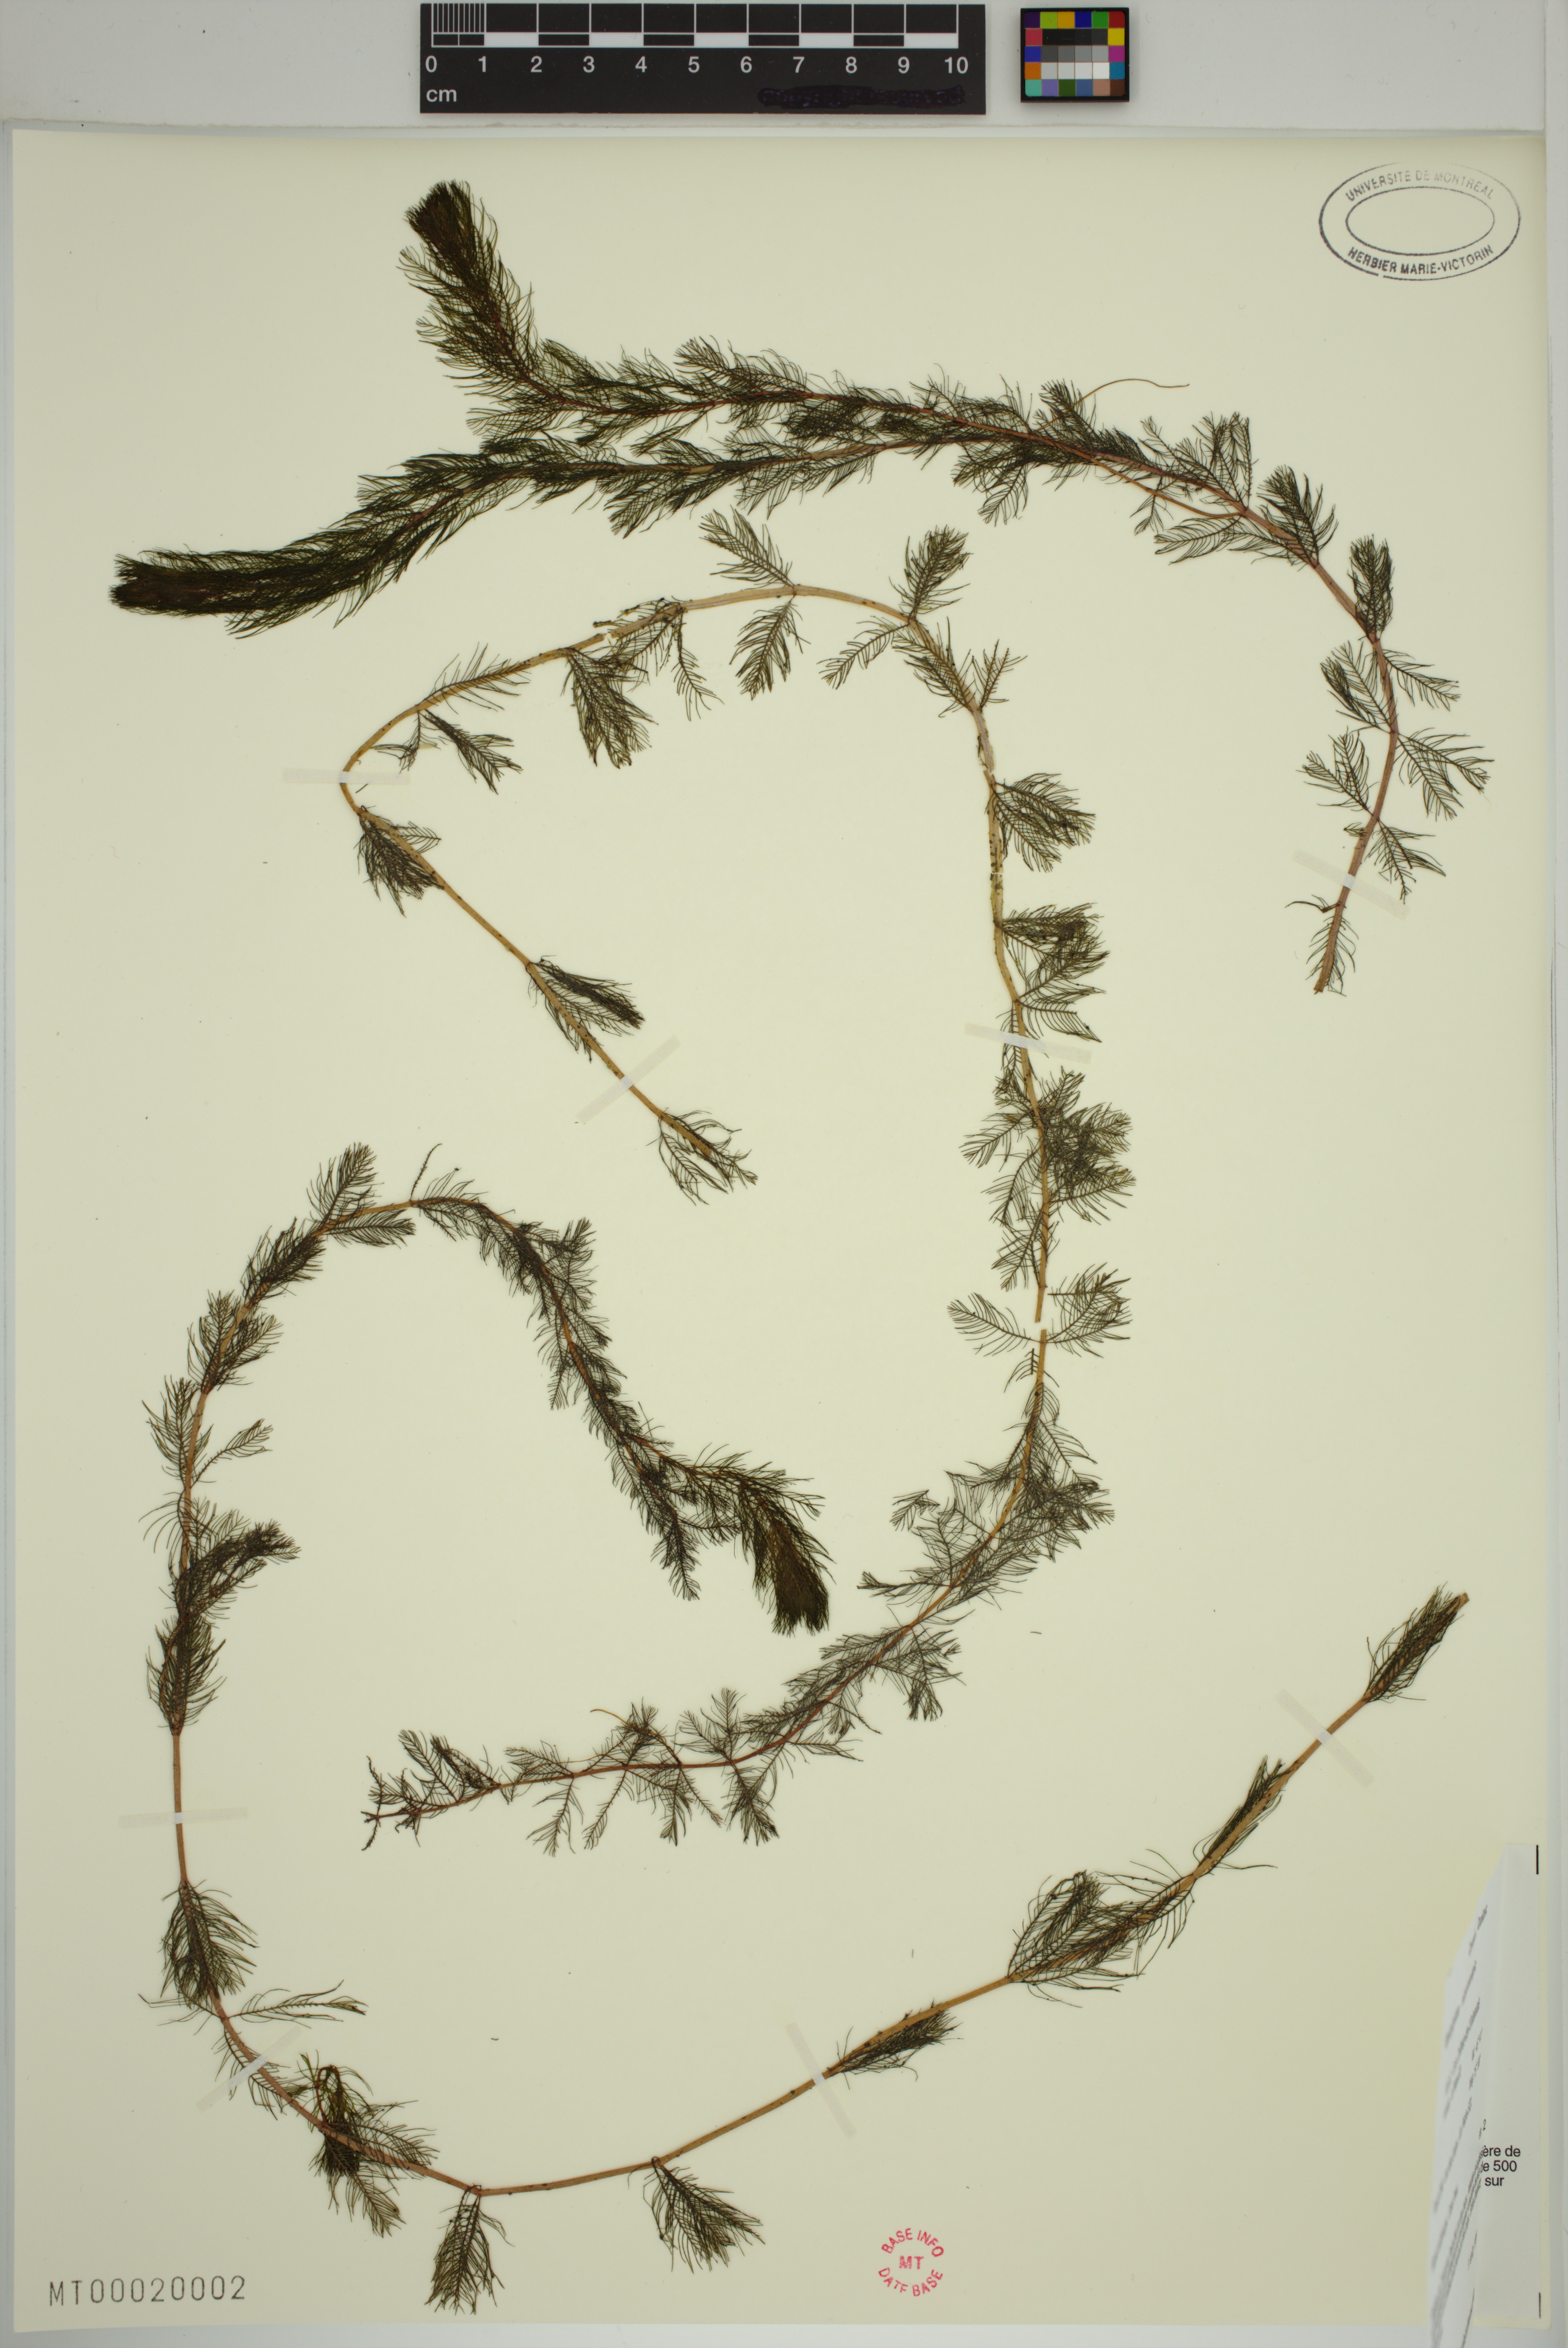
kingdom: Plantae
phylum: Tracheophyta
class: Magnoliopsida
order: Saxifragales
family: Haloragaceae
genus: Myriophyllum
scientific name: Myriophyllum sibiricum
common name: Siberian water-milfoil
